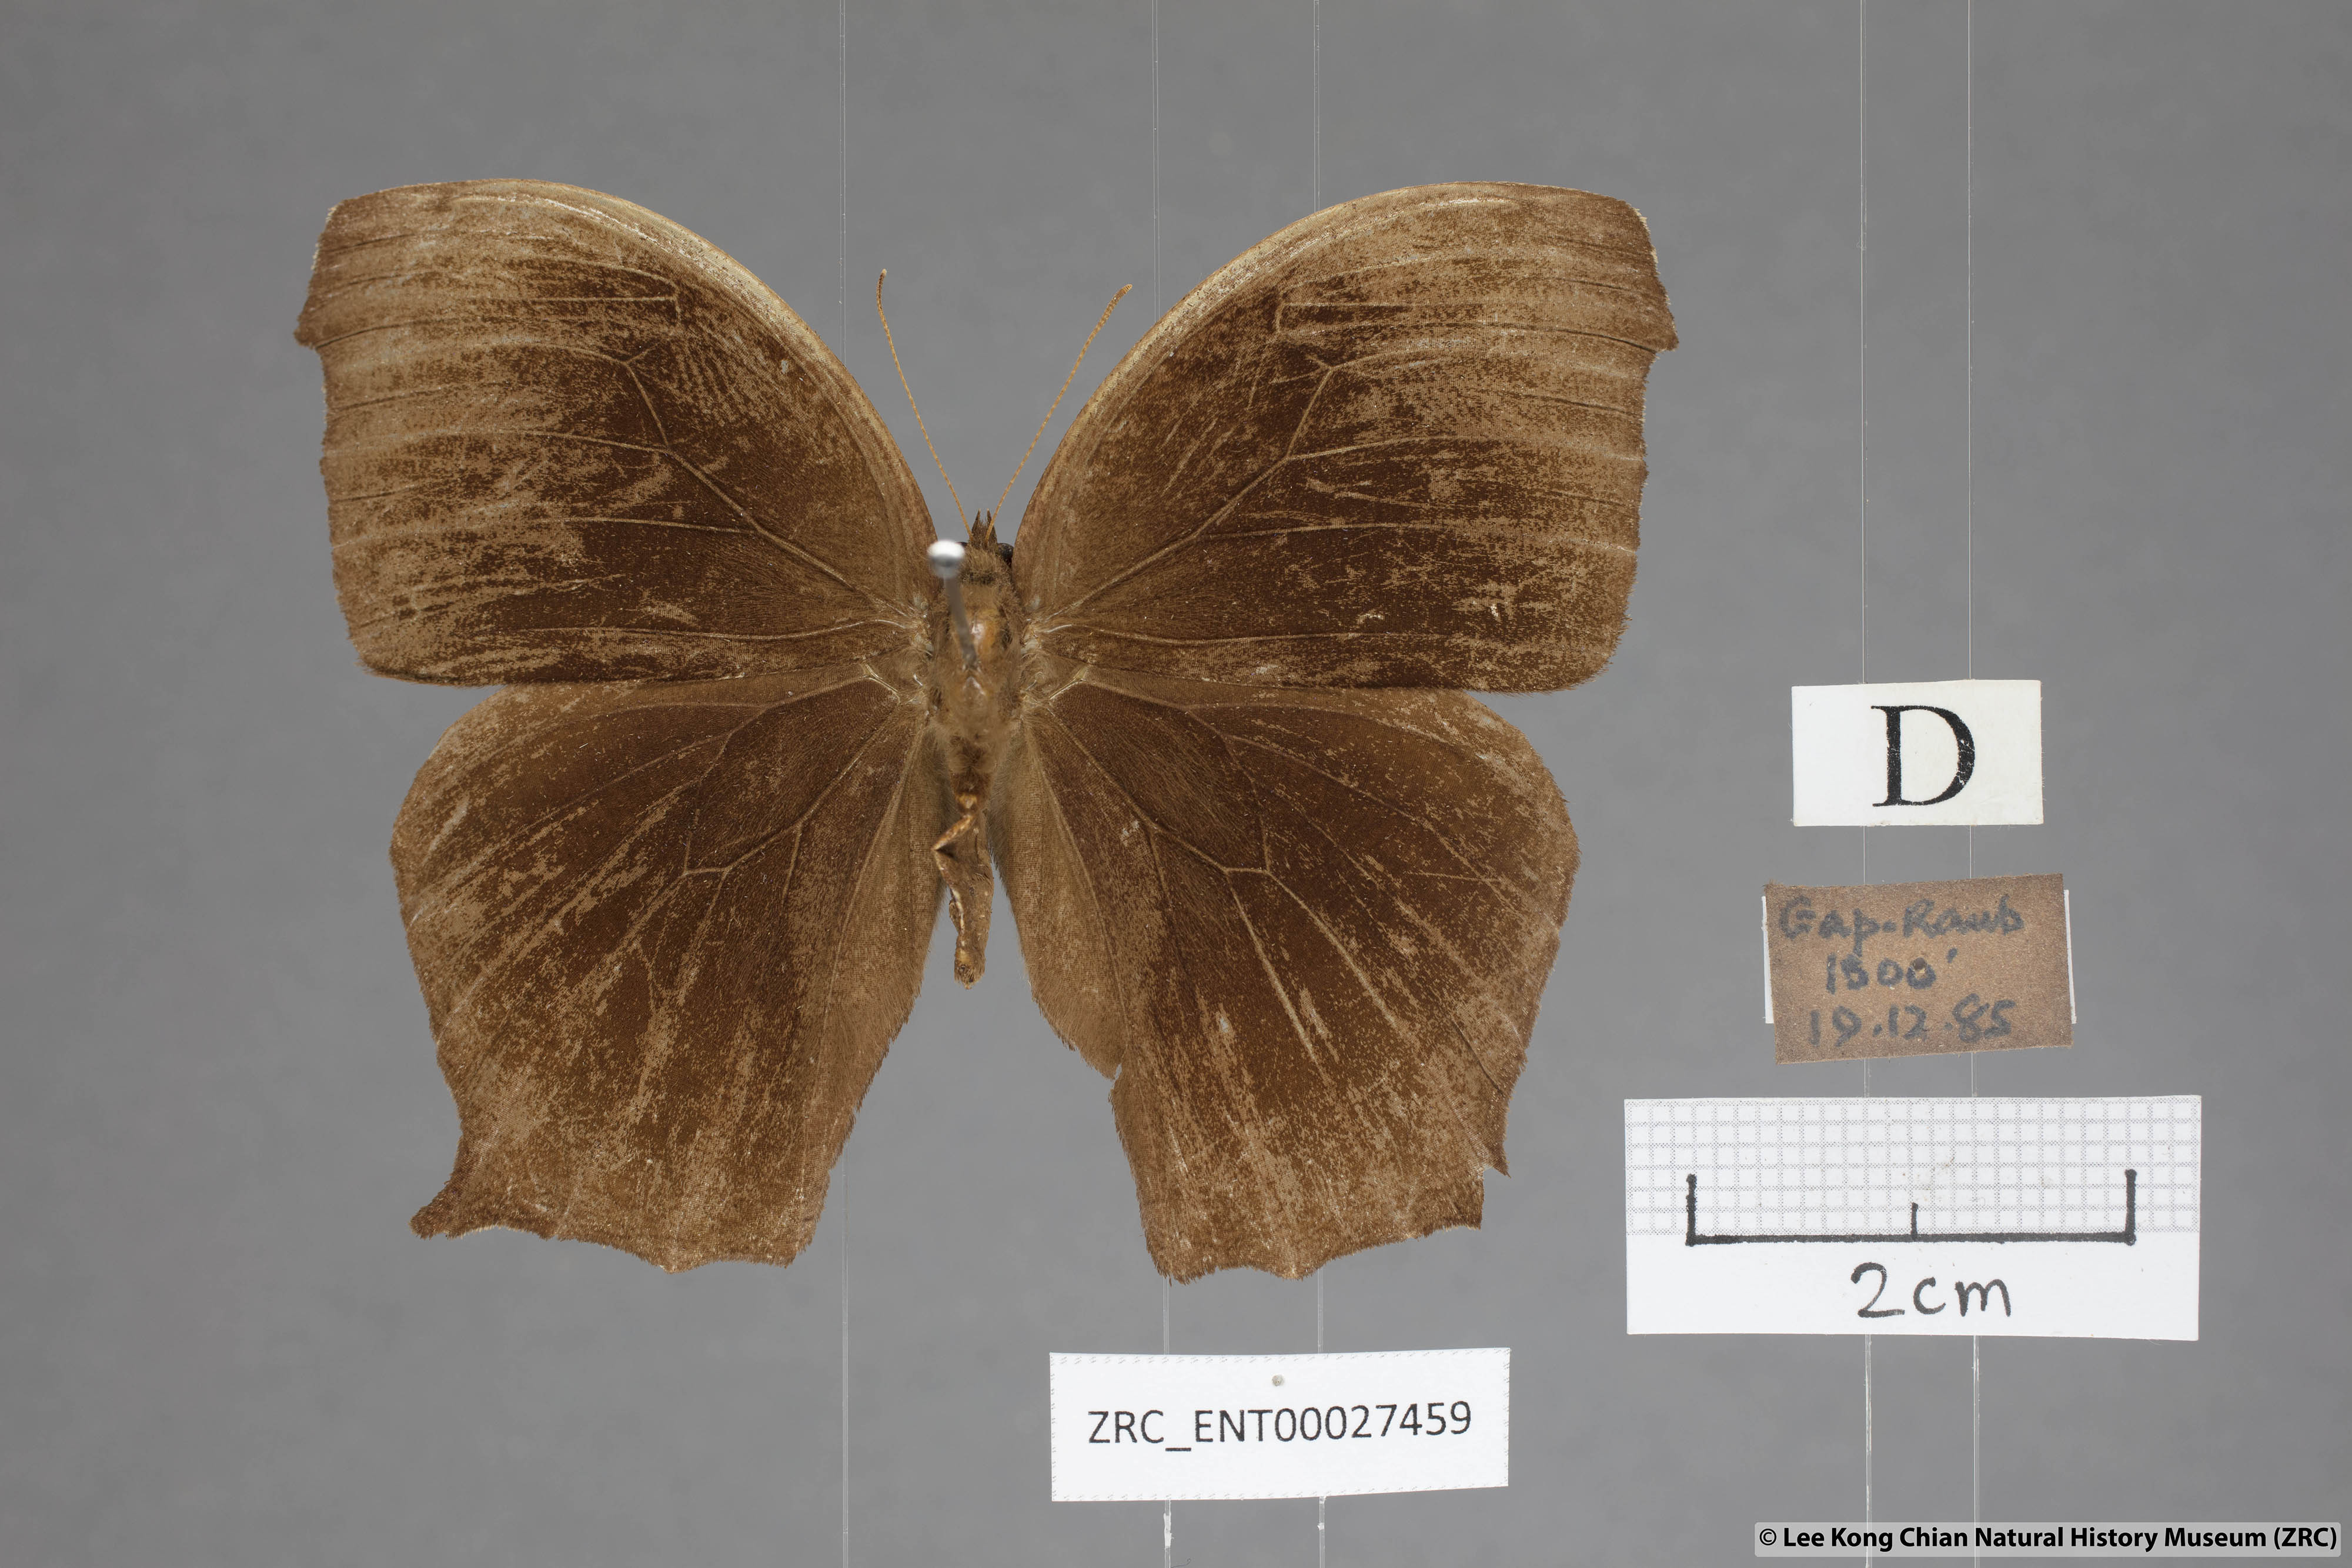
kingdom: Animalia
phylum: Arthropoda
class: Insecta
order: Lepidoptera
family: Nymphalidae
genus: Melanitis
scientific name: Melanitis phedima
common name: Dark evening brown
